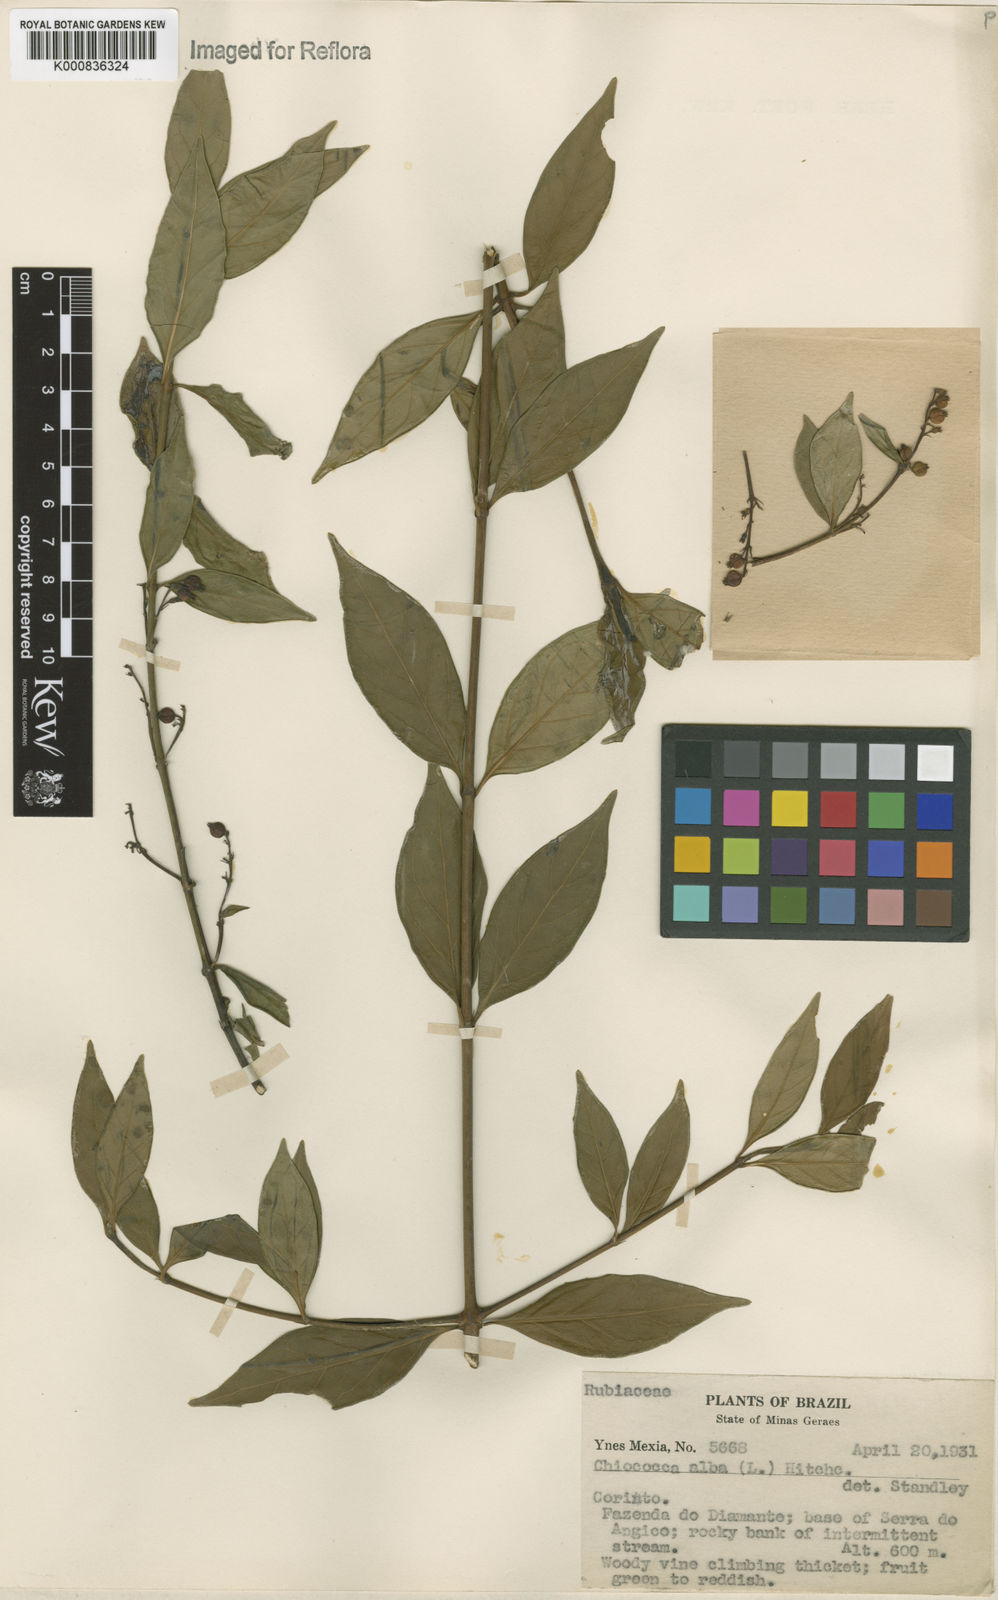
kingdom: Plantae
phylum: Tracheophyta
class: Magnoliopsida
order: Gentianales
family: Rubiaceae
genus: Chiococca
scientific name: Chiococca alba
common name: Snowberry
